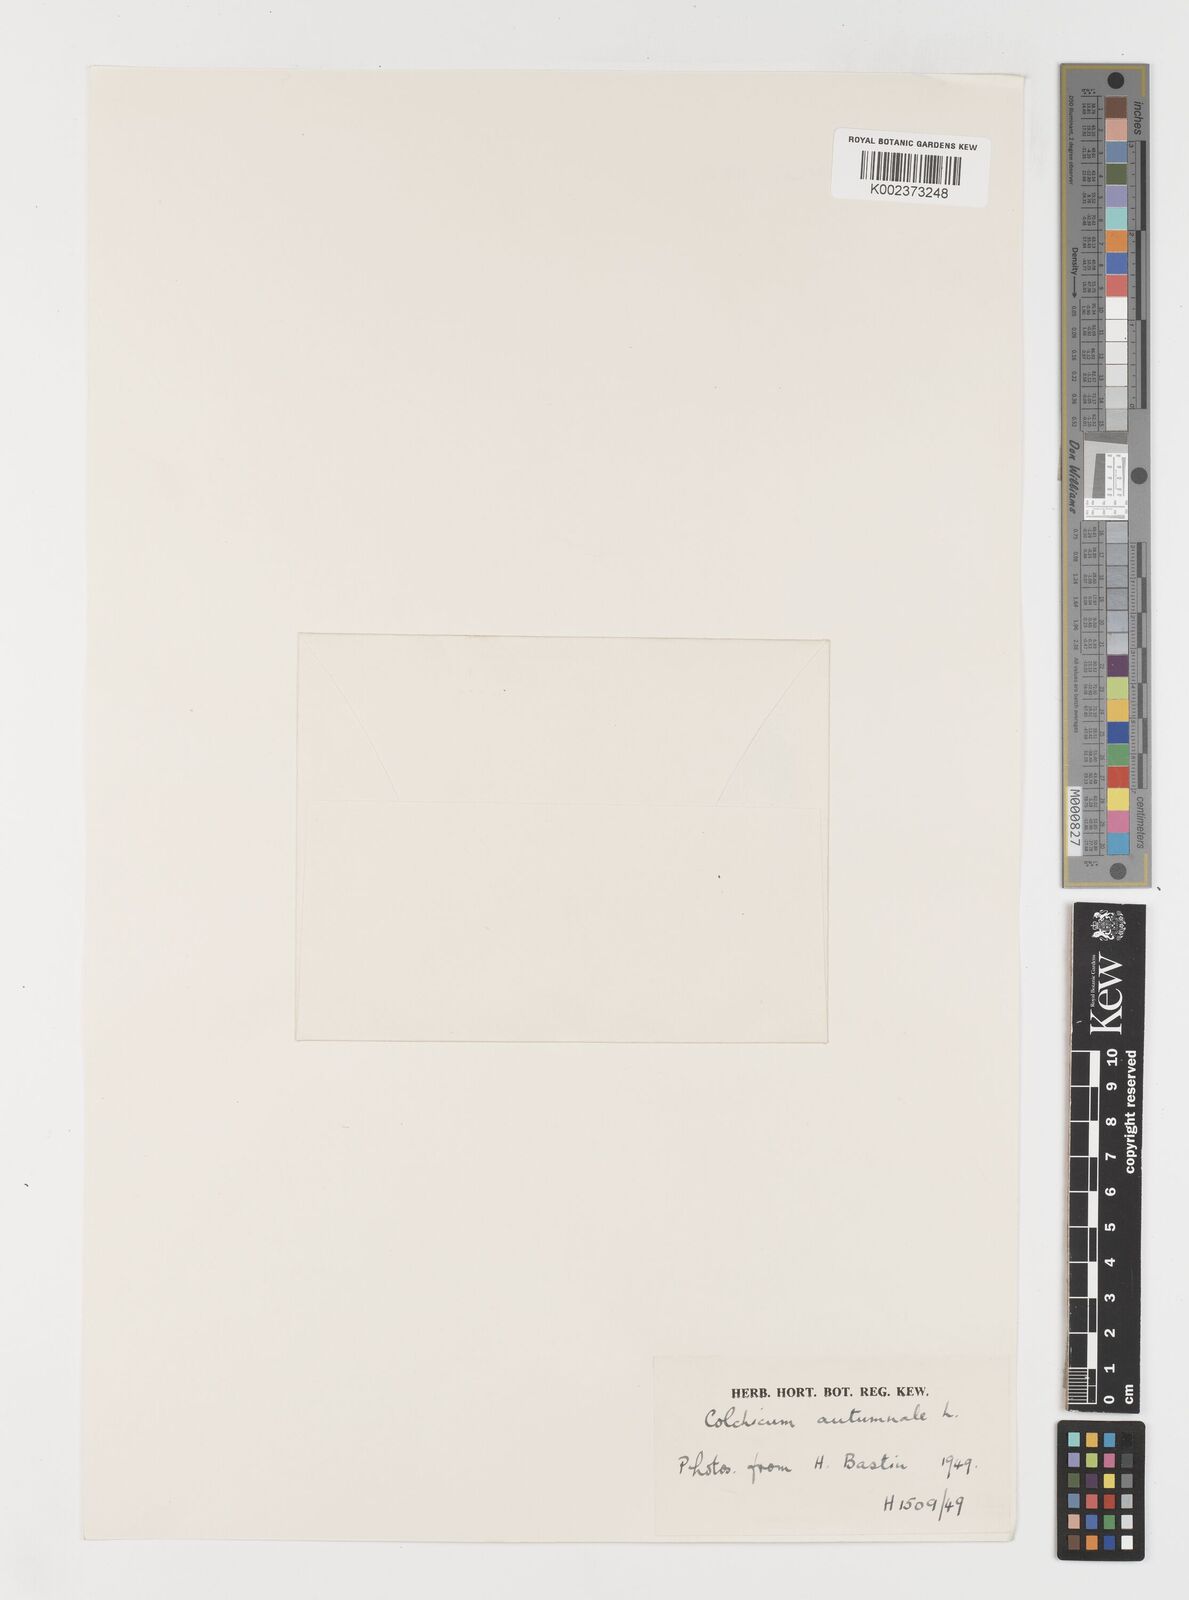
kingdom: Plantae
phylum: Tracheophyta
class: Liliopsida
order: Liliales
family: Colchicaceae
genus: Colchicum
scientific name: Colchicum autumnale
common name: Autumn crocus
